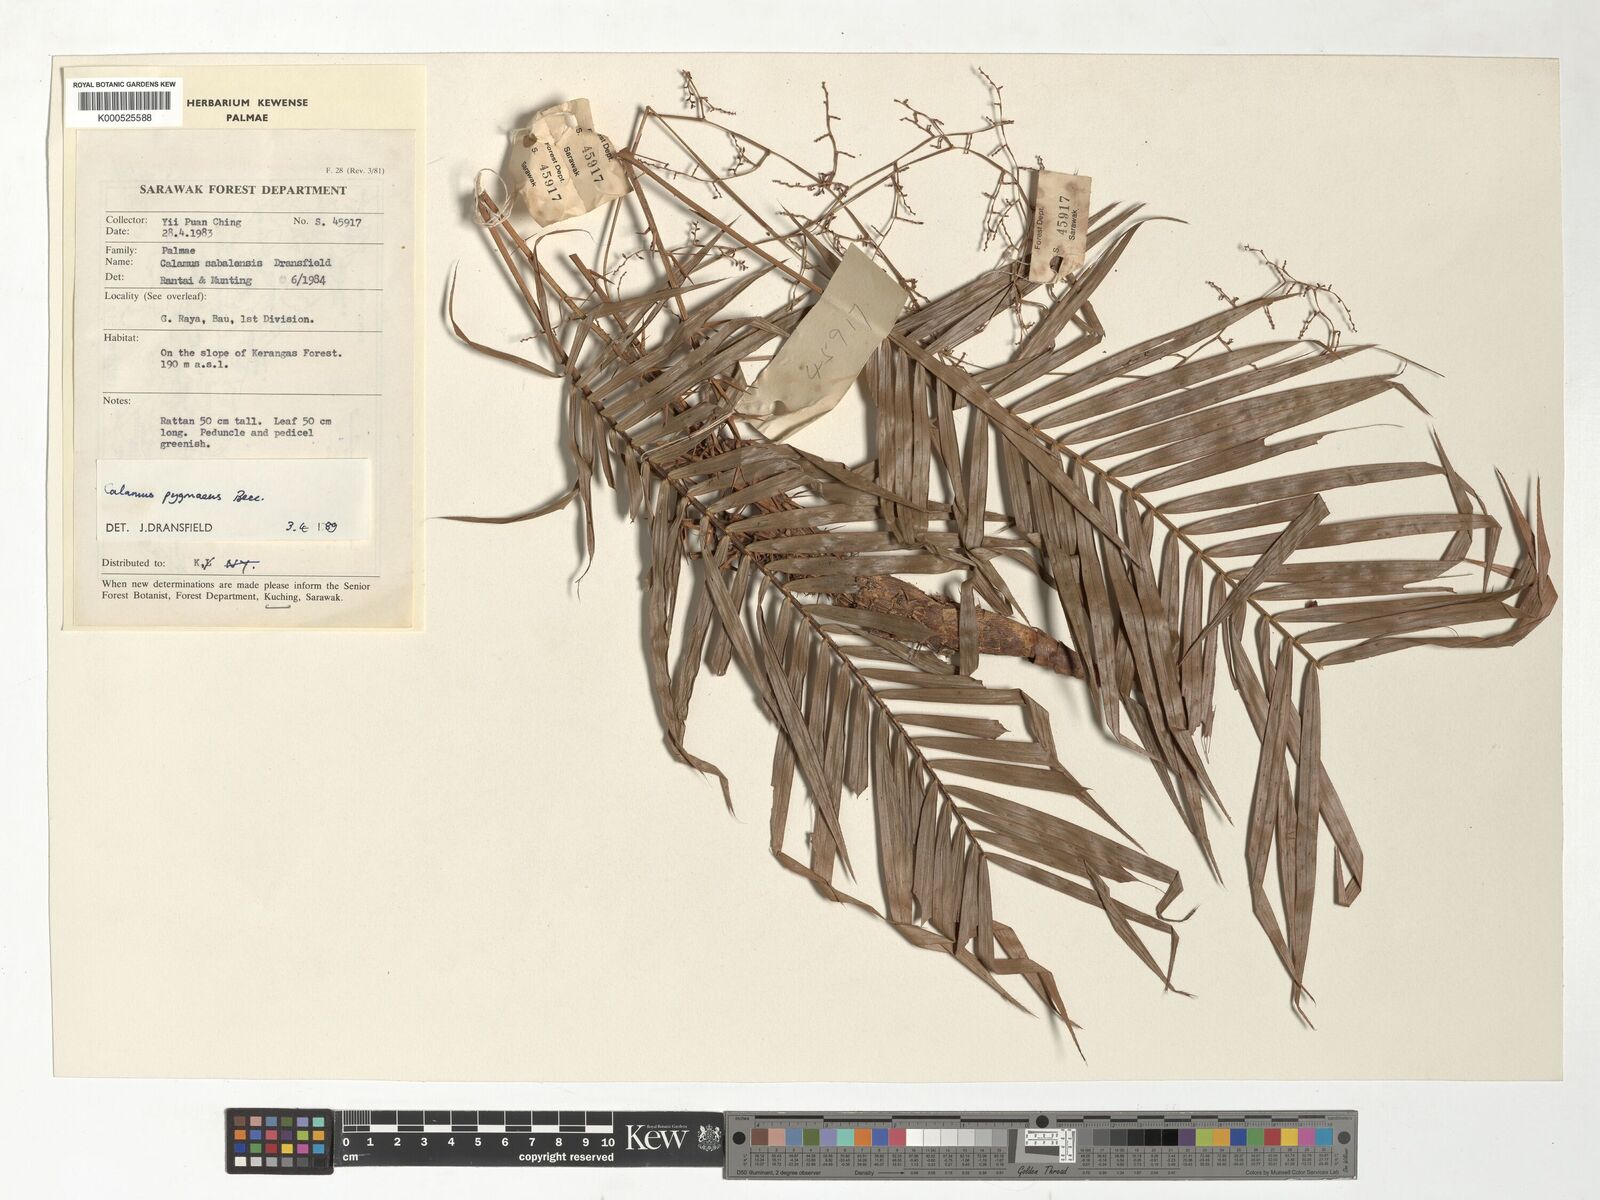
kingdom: Plantae
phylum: Tracheophyta
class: Liliopsida
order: Arecales
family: Arecaceae
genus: Calamus
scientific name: Calamus pygmaeus
